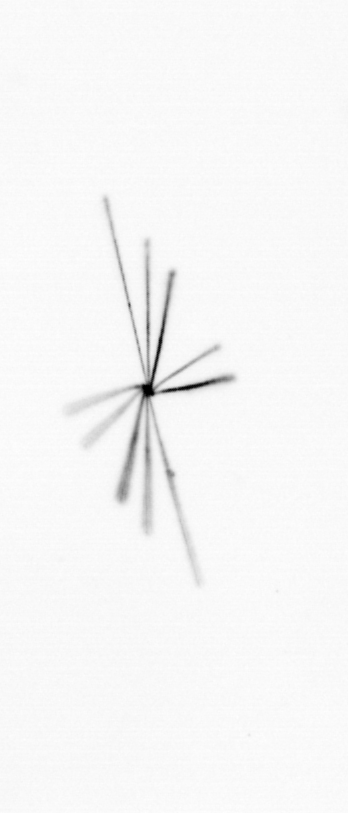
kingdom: Chromista
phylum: Ochrophyta
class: Bacillariophyceae
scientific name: Bacillariophyceae
